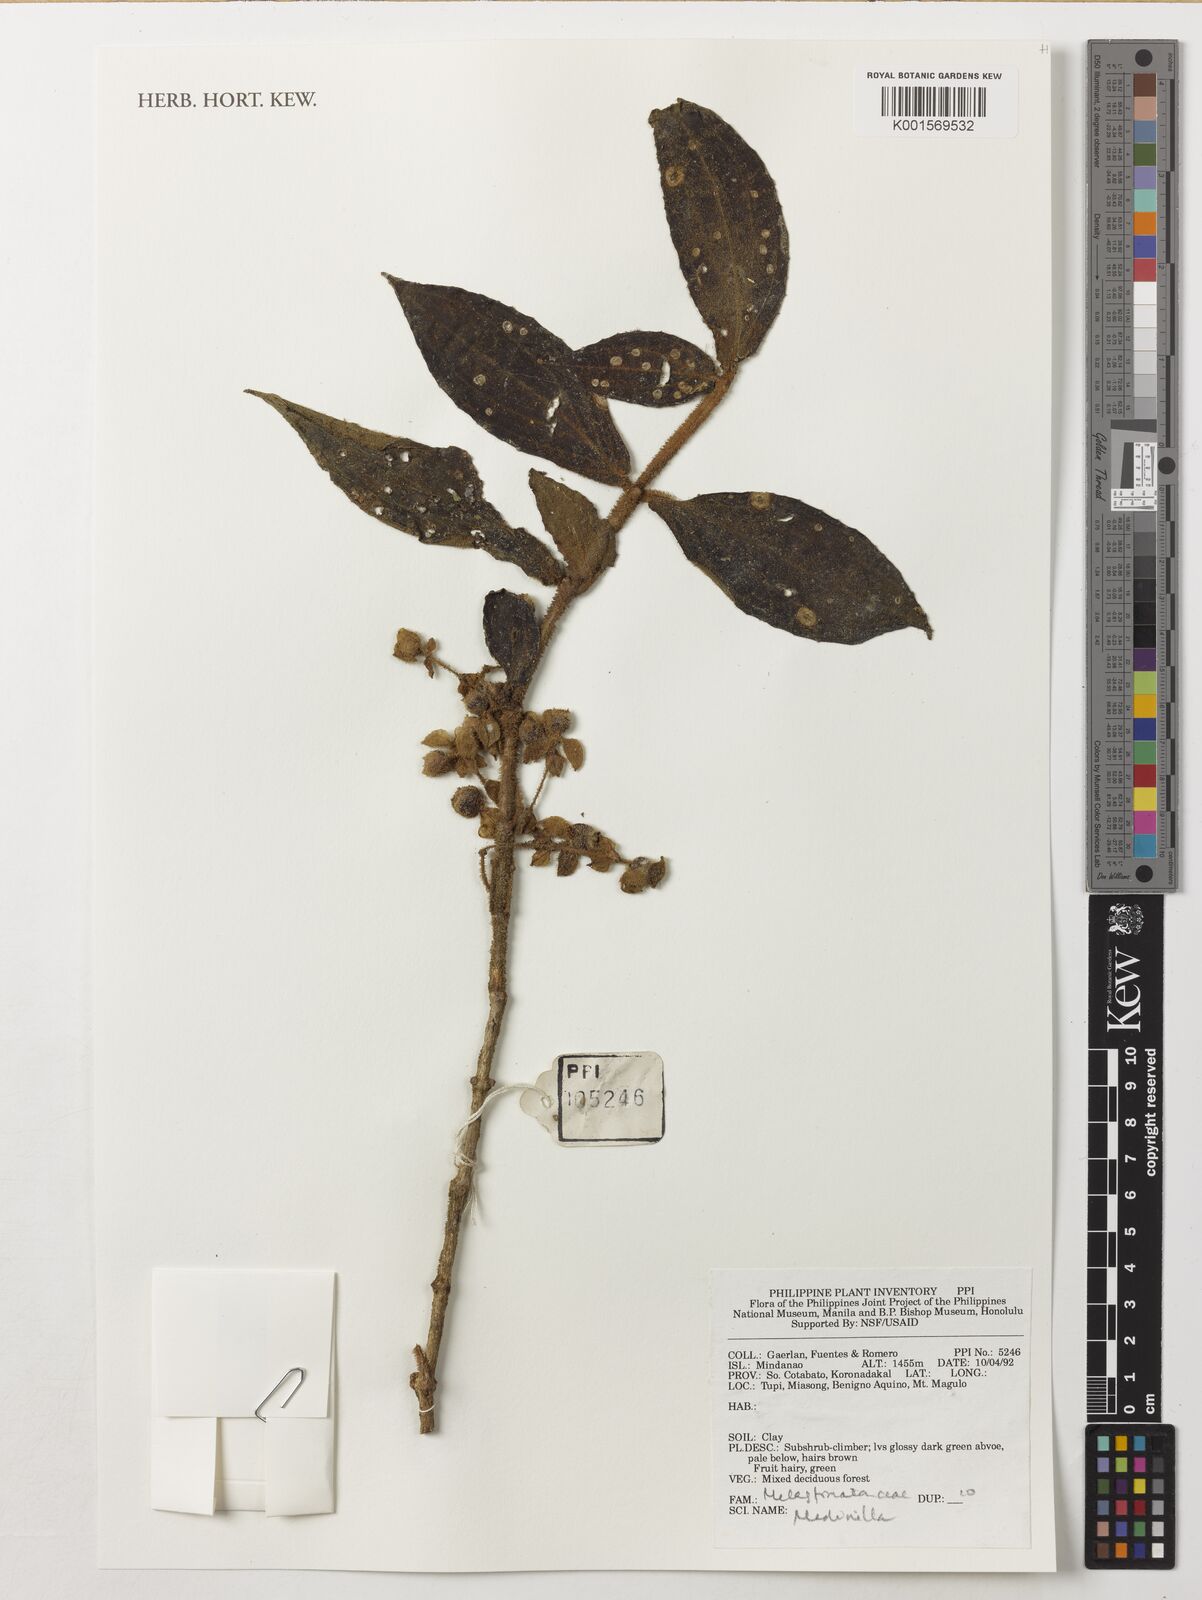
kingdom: Plantae
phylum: Tracheophyta
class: Magnoliopsida
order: Myrtales
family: Melastomataceae
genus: Medinilla
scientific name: Medinilla
